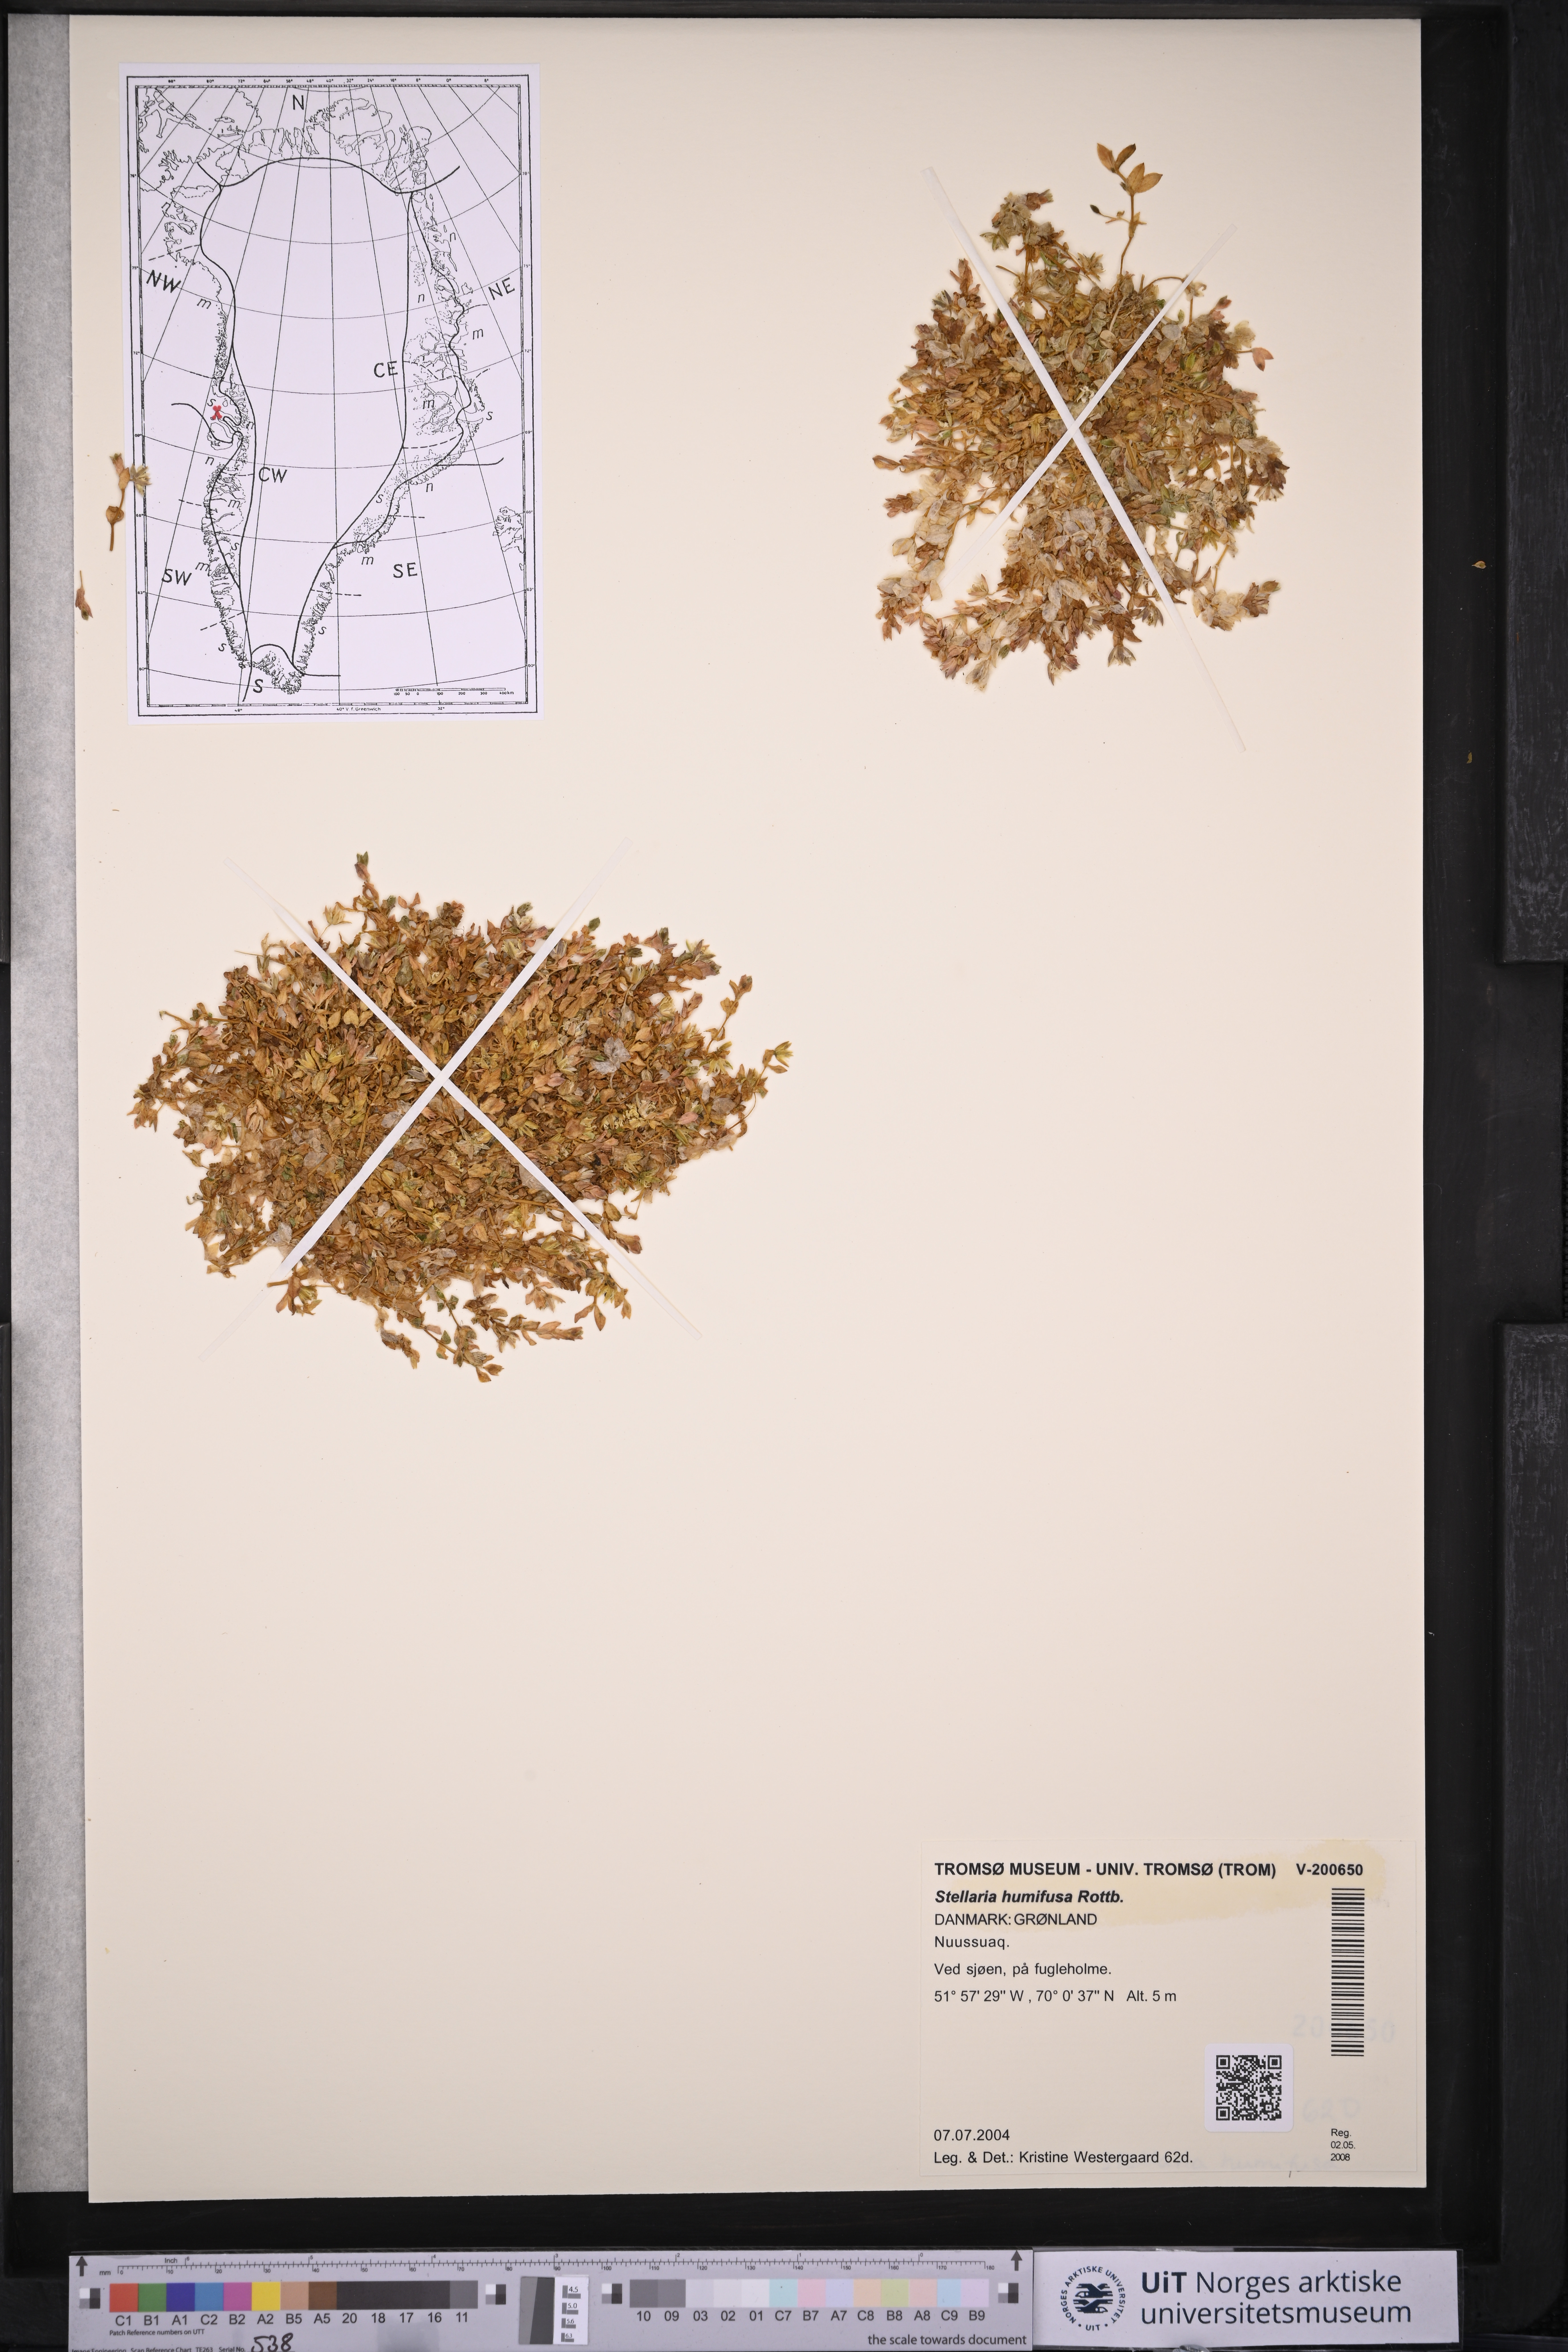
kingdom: Plantae
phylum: Tracheophyta
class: Magnoliopsida
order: Caryophyllales
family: Caryophyllaceae
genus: Stellaria
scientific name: Stellaria humifusa
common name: Creeping starwort
